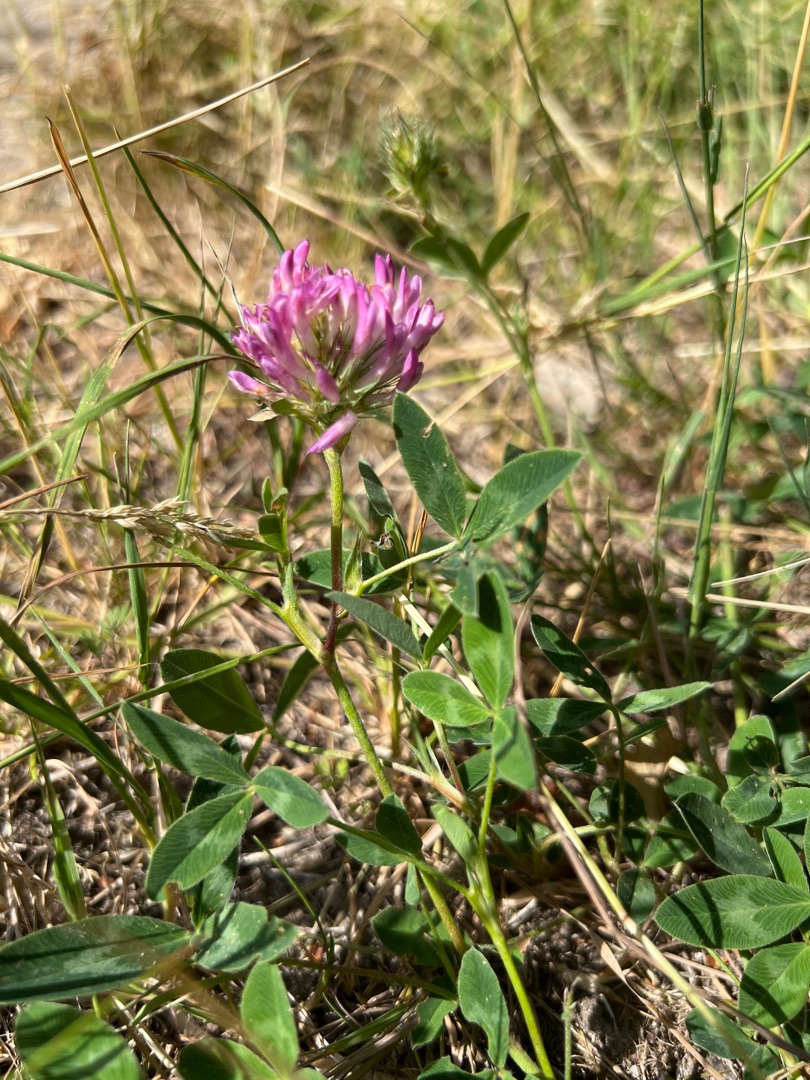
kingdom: Plantae
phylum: Tracheophyta
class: Magnoliopsida
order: Fabales
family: Fabaceae
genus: Trifolium
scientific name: Trifolium medium
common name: Bugtet kløver
